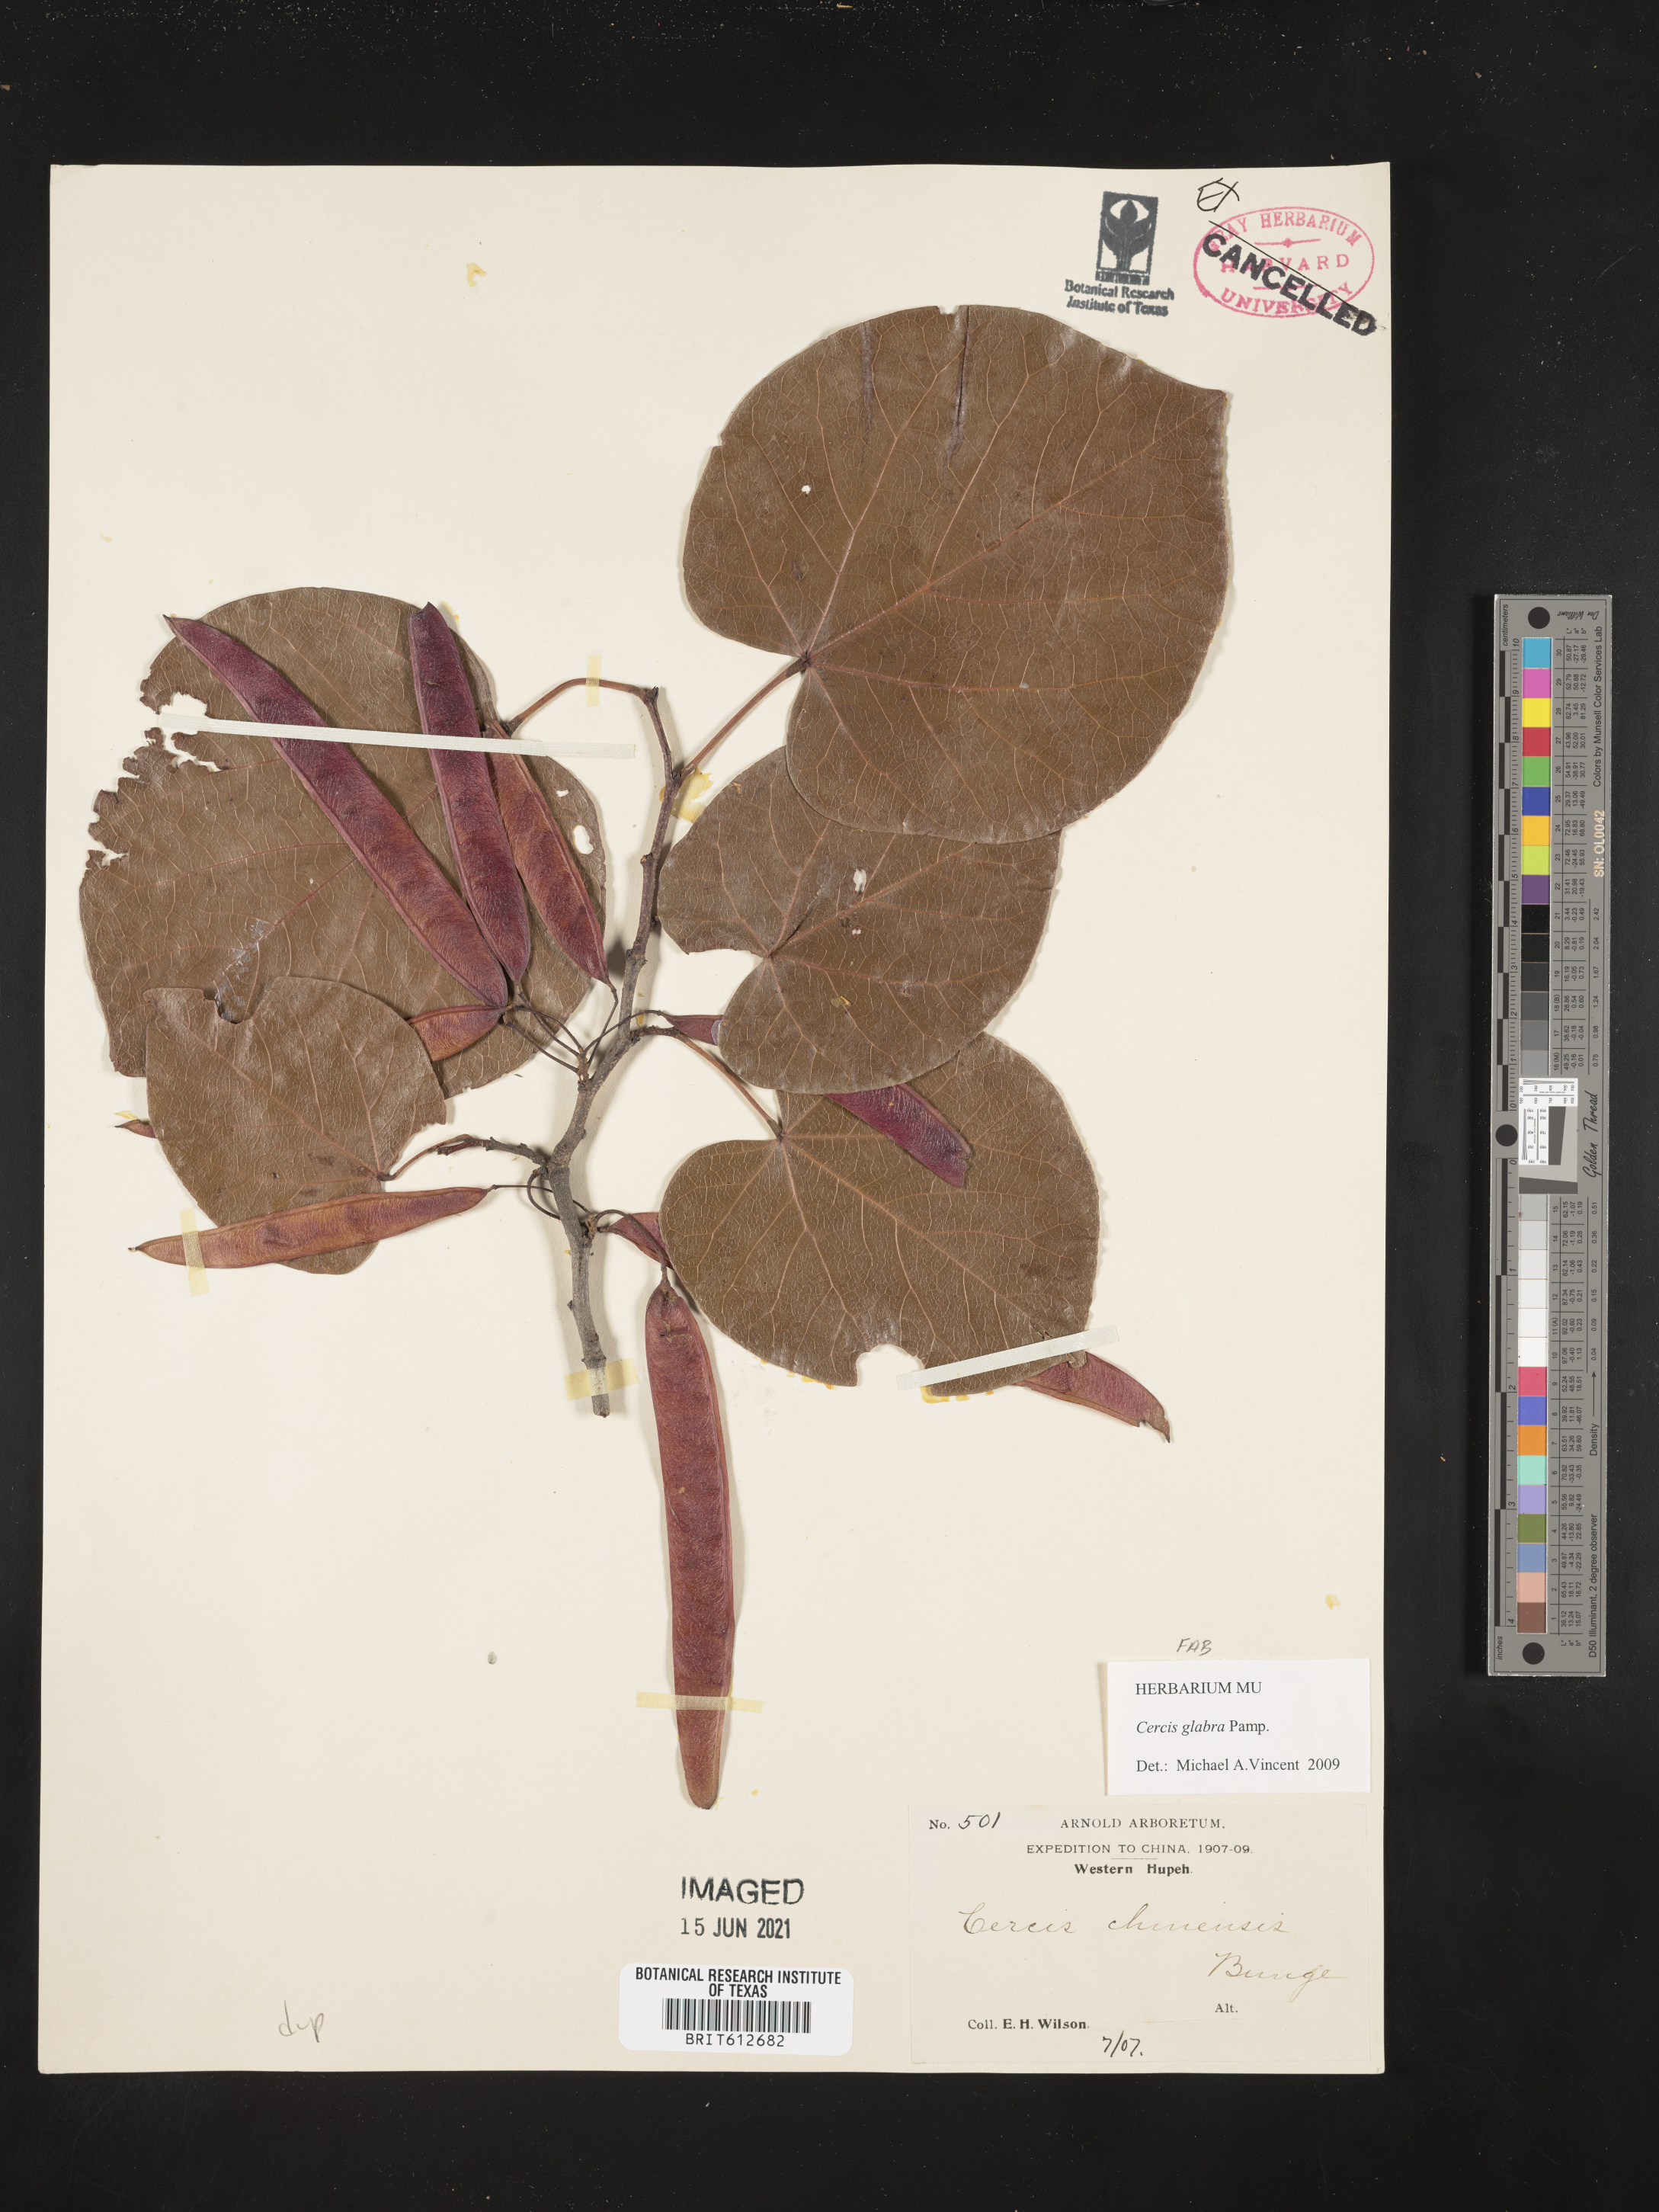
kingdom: Plantae
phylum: Tracheophyta
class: Magnoliopsida
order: Fabales
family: Fabaceae
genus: Cercis
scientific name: Cercis glabra
